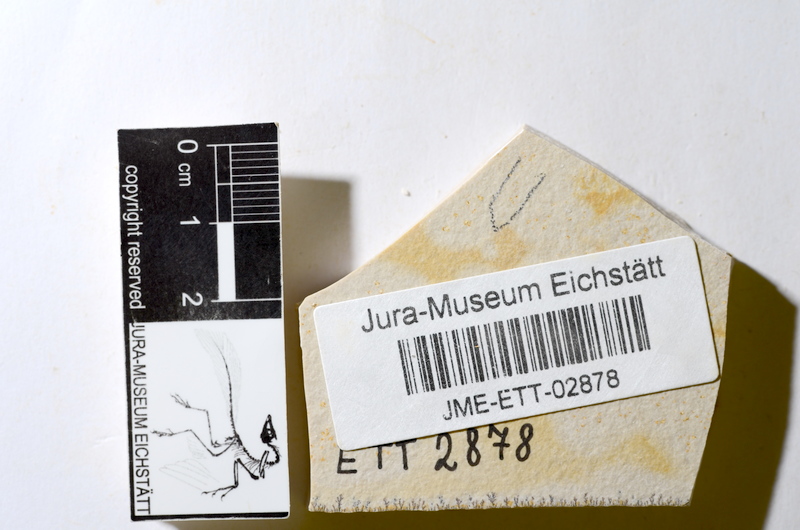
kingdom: Animalia
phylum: Chordata
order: Salmoniformes
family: Orthogonikleithridae
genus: Orthogonikleithrus
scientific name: Orthogonikleithrus hoelli
